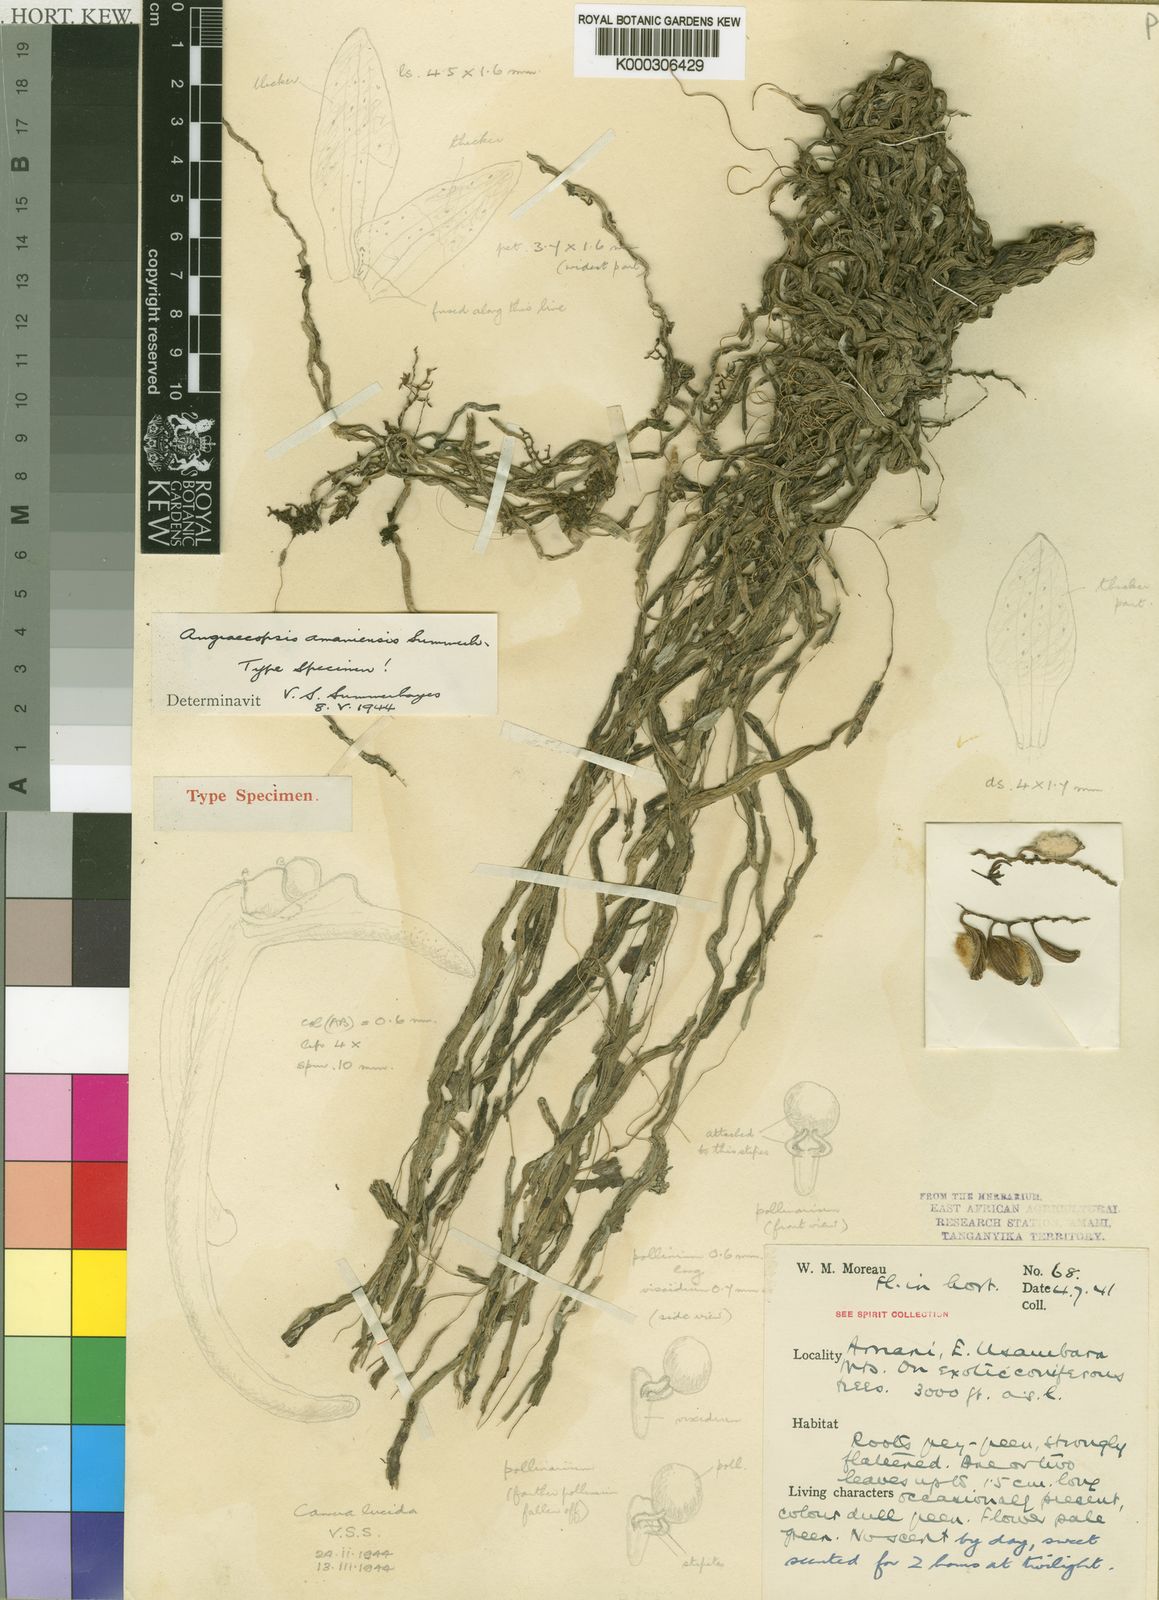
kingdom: Plantae
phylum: Tracheophyta
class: Liliopsida
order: Asparagales
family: Orchidaceae
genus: Sphyrarhynchus
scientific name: Sphyrarhynchus amaniense
